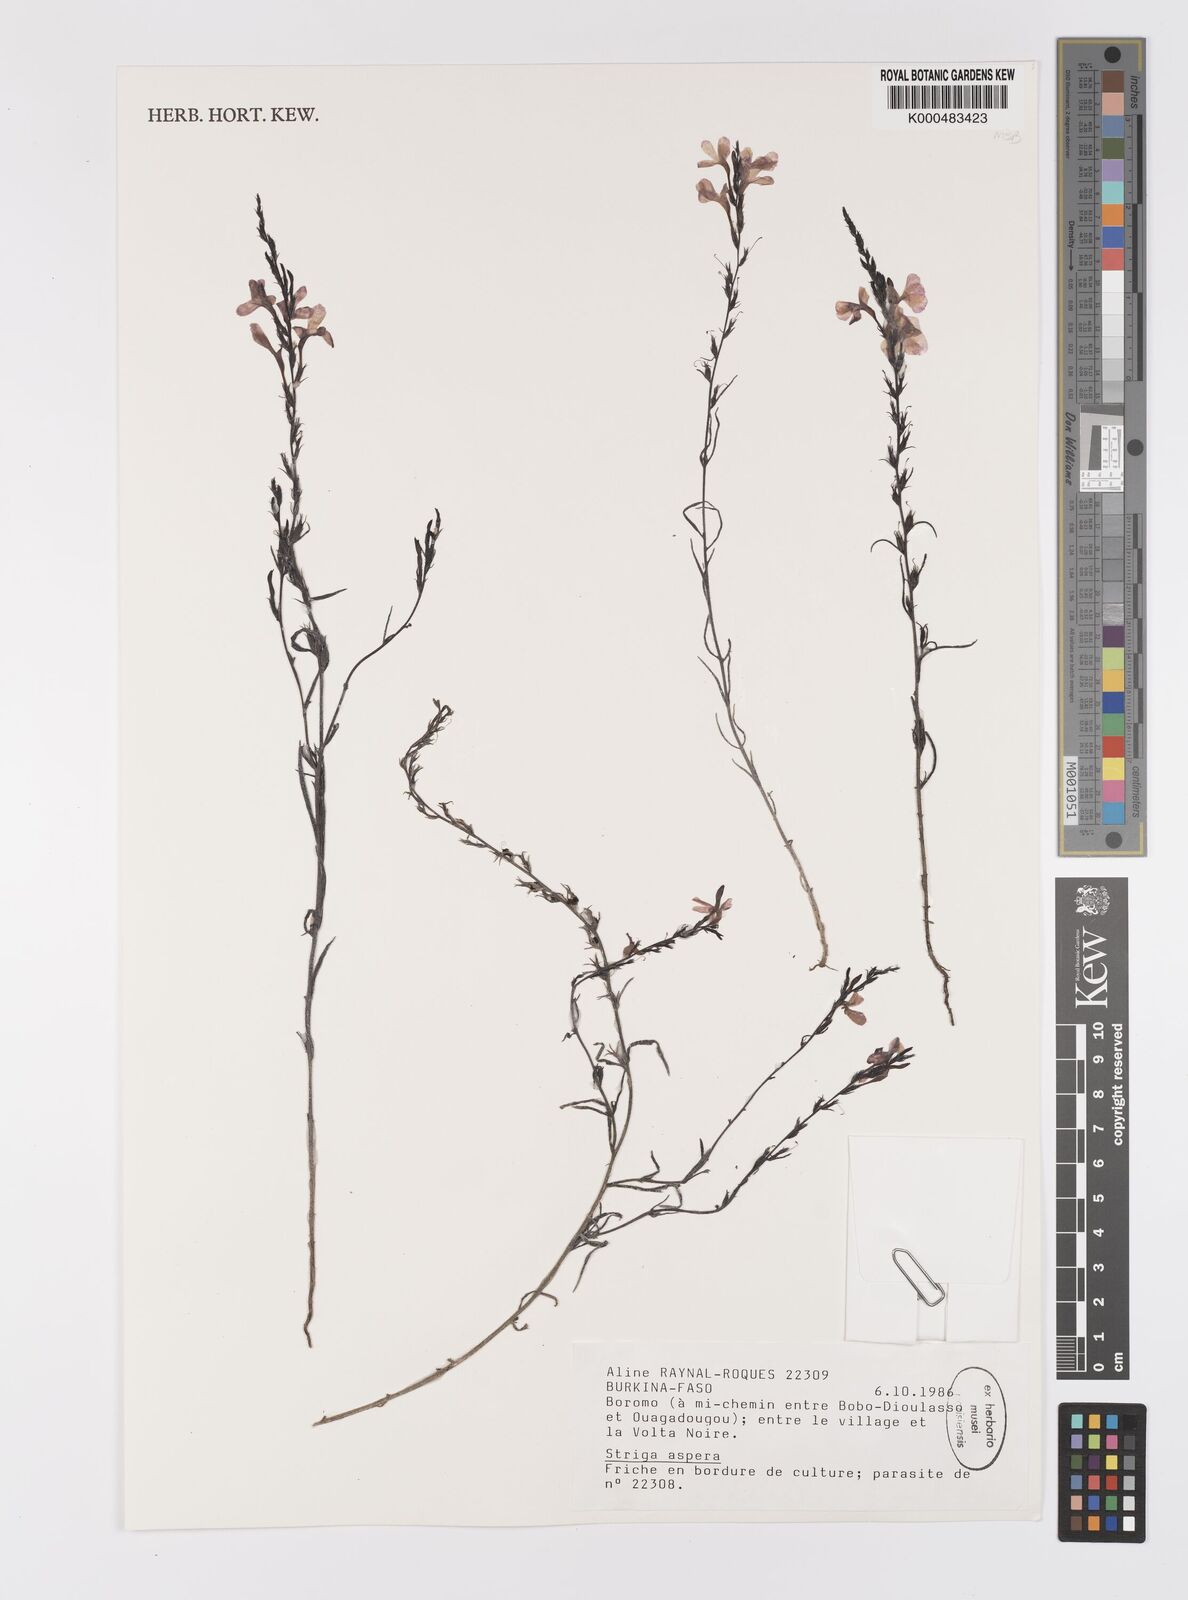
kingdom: Plantae
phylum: Tracheophyta
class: Magnoliopsida
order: Lamiales
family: Orobanchaceae
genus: Striga
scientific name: Striga aspera
